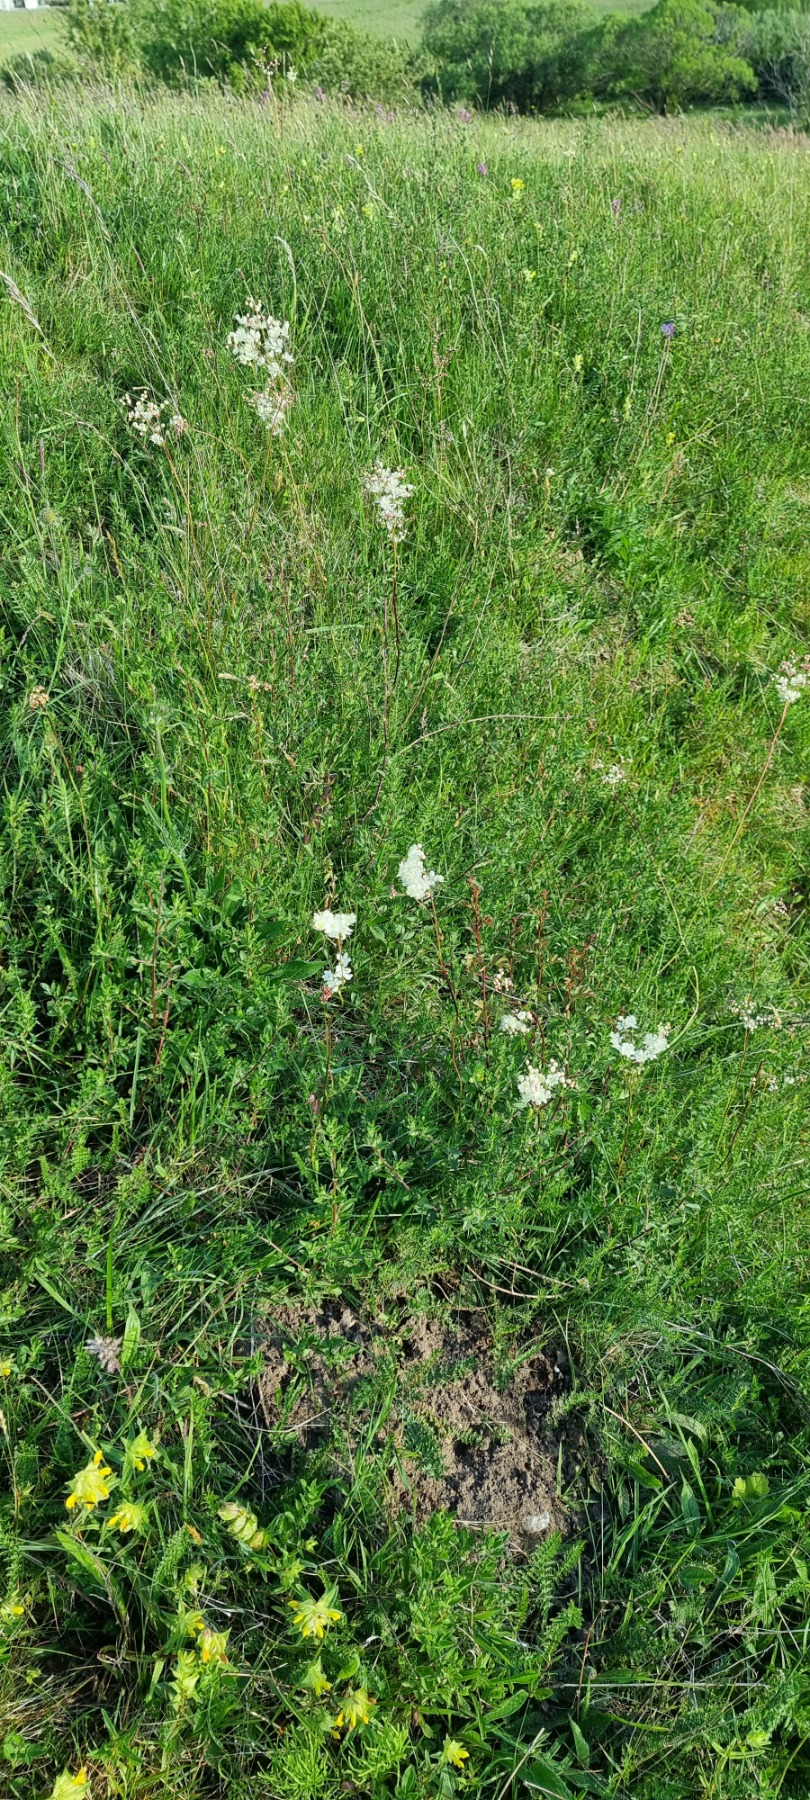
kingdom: Plantae
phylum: Tracheophyta
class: Magnoliopsida
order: Rosales
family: Rosaceae
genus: Filipendula
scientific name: Filipendula vulgaris
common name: Knoldet mjødurt
